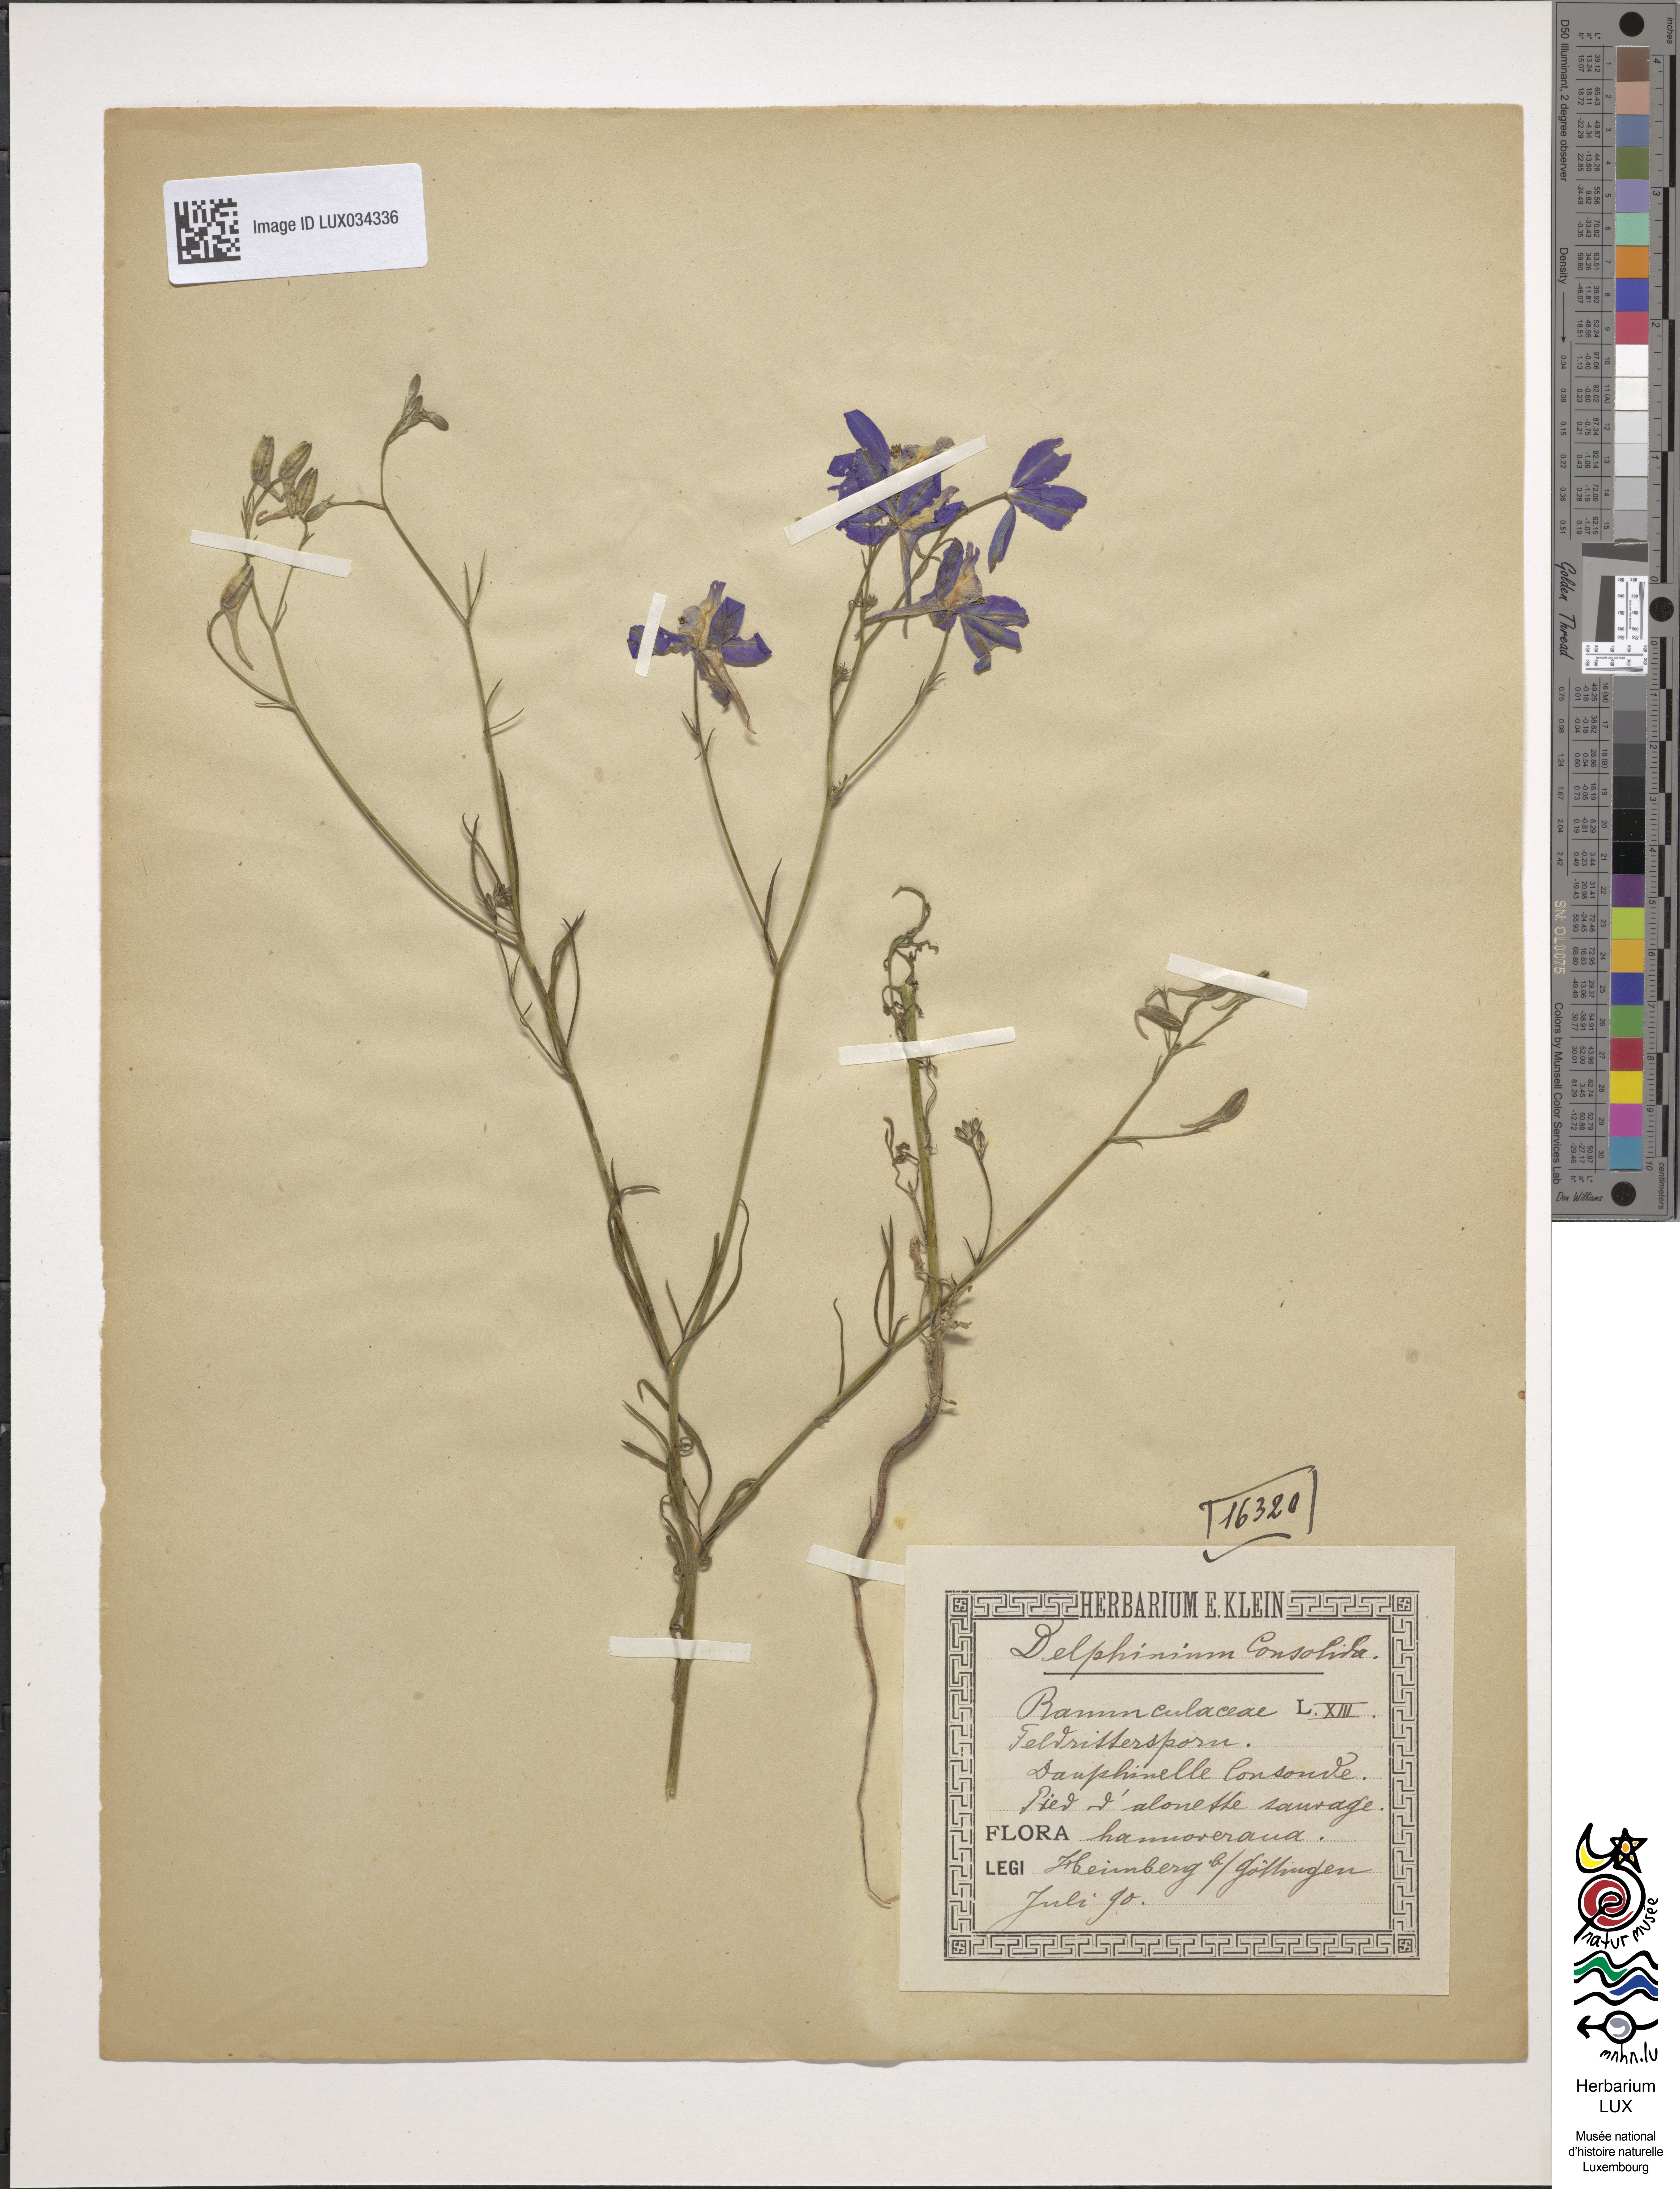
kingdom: Plantae
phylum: Tracheophyta
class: Magnoliopsida
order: Ranunculales
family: Ranunculaceae
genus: Delphinium
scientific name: Delphinium consolida
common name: Branching larkspur
